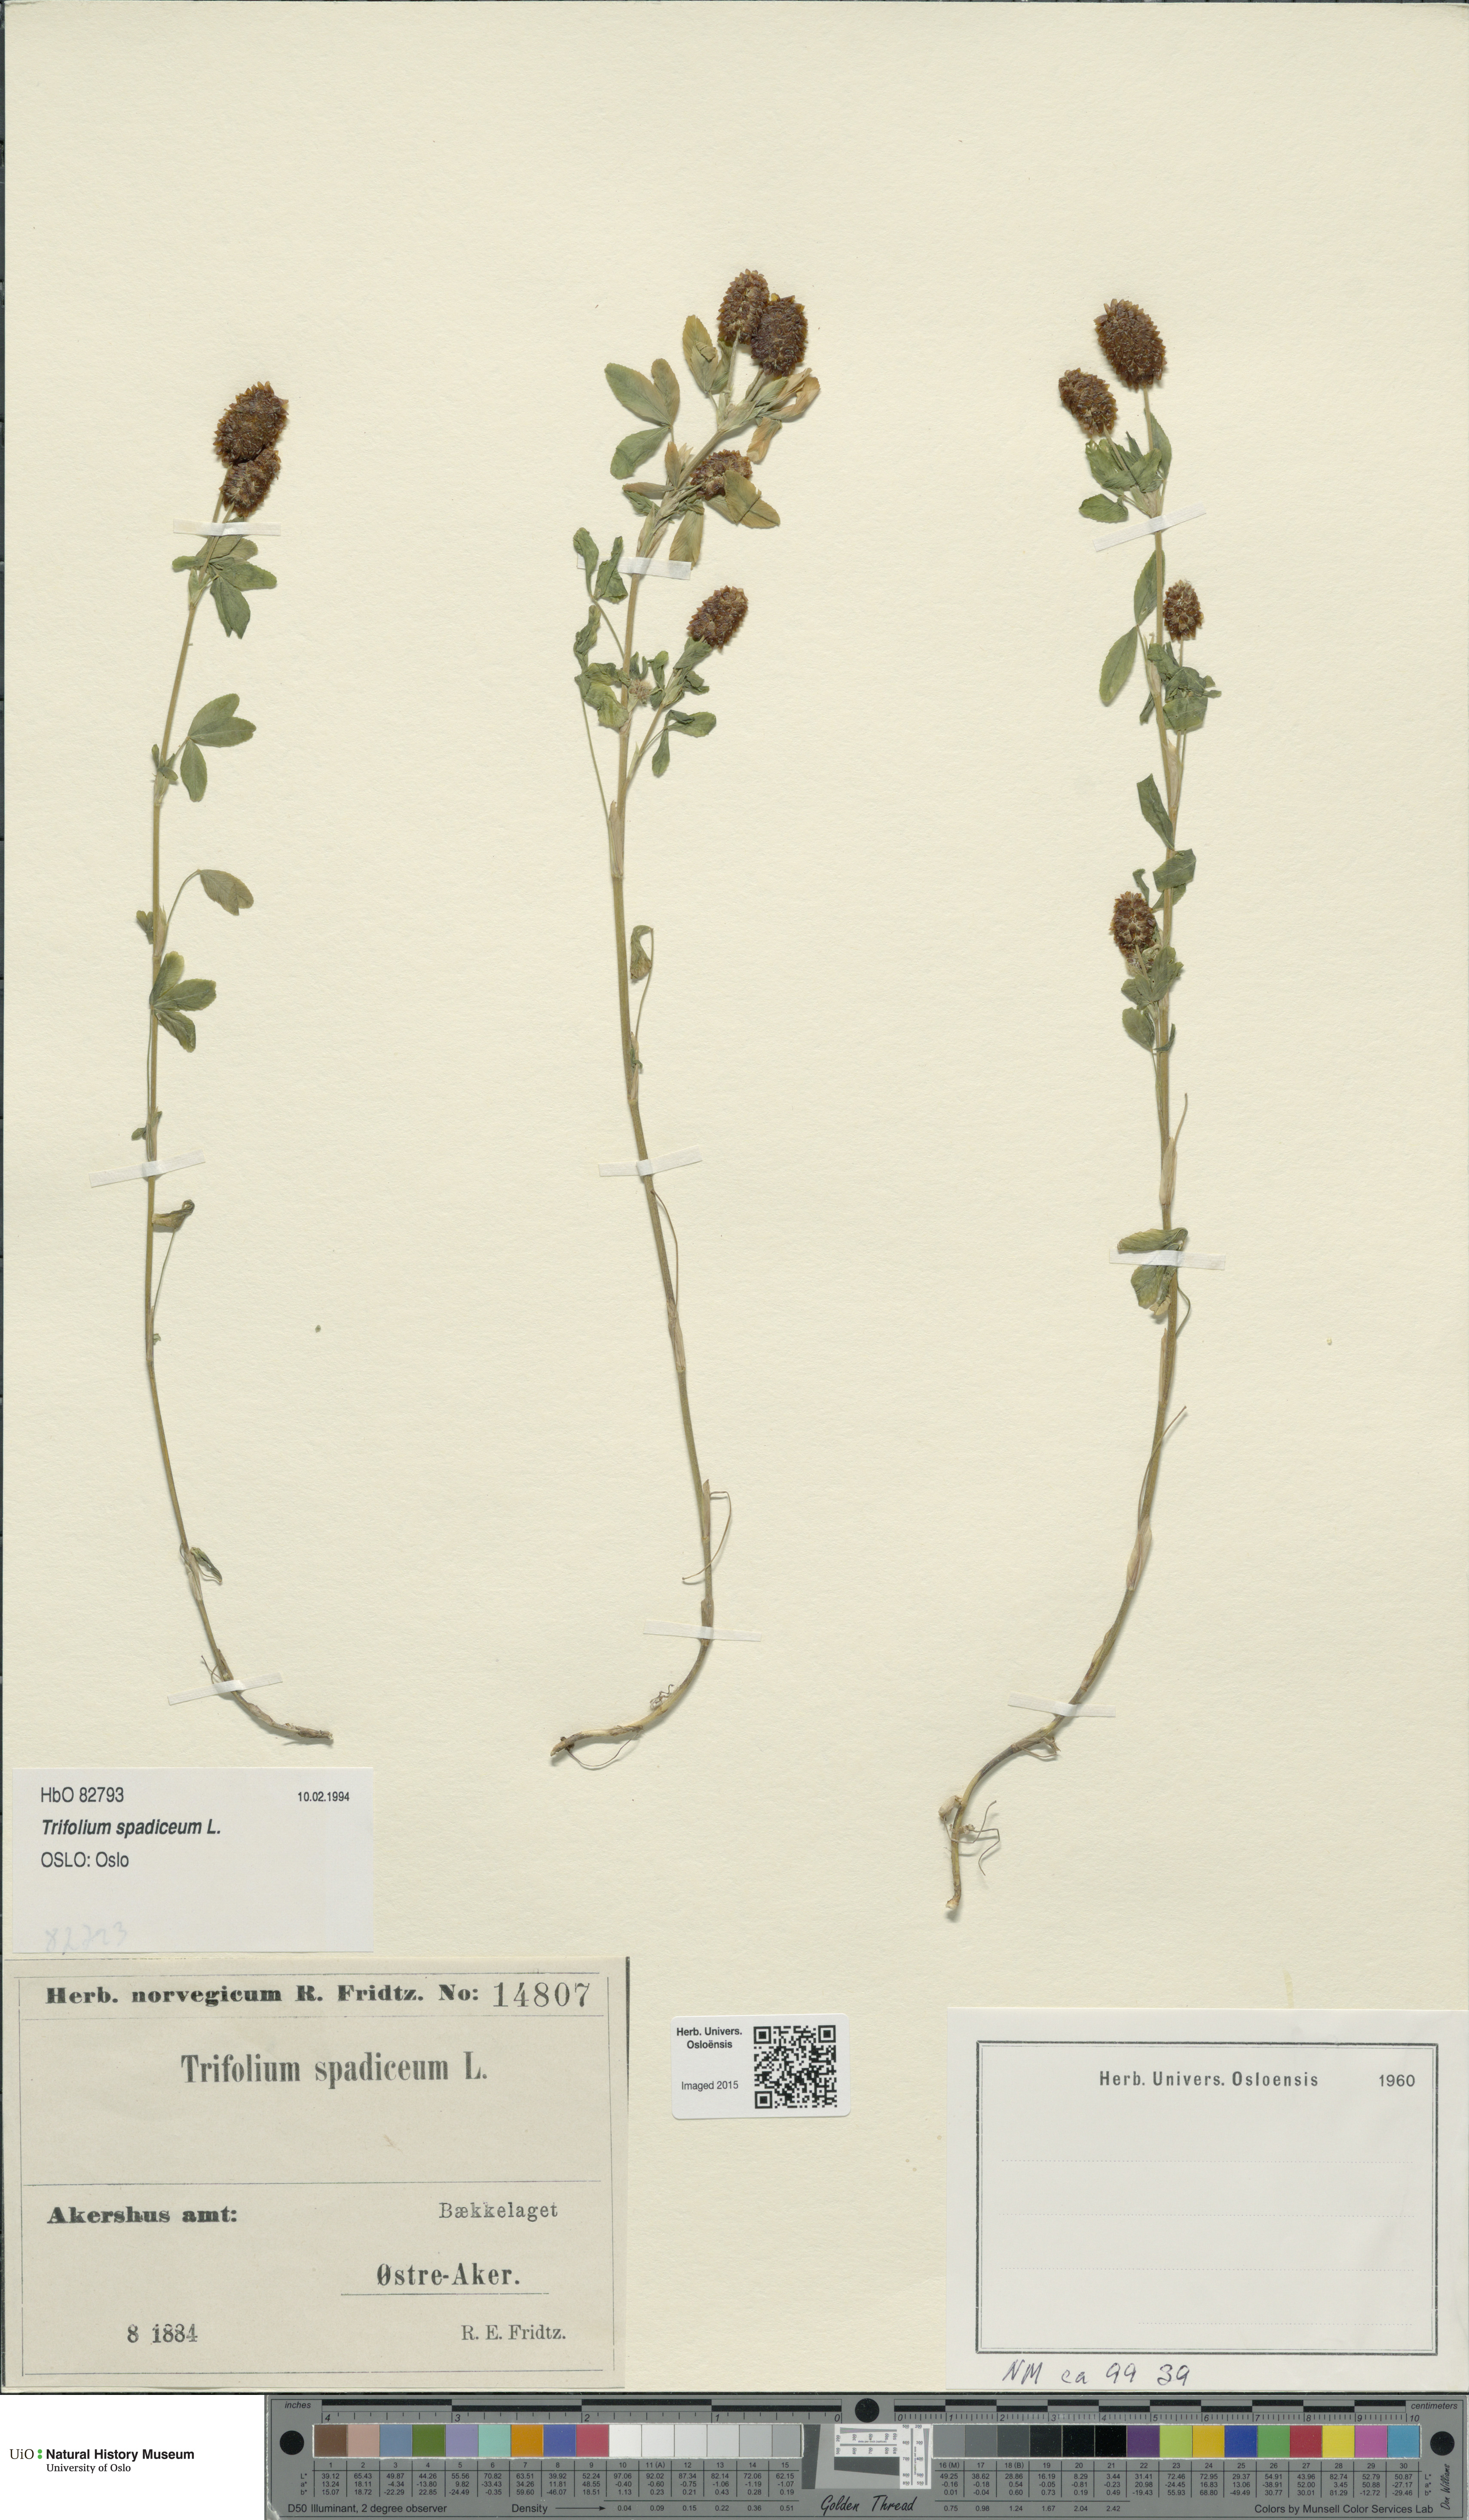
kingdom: Plantae
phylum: Tracheophyta
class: Magnoliopsida
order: Fabales
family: Fabaceae
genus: Trifolium
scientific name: Trifolium spadiceum
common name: Brown moor clover
